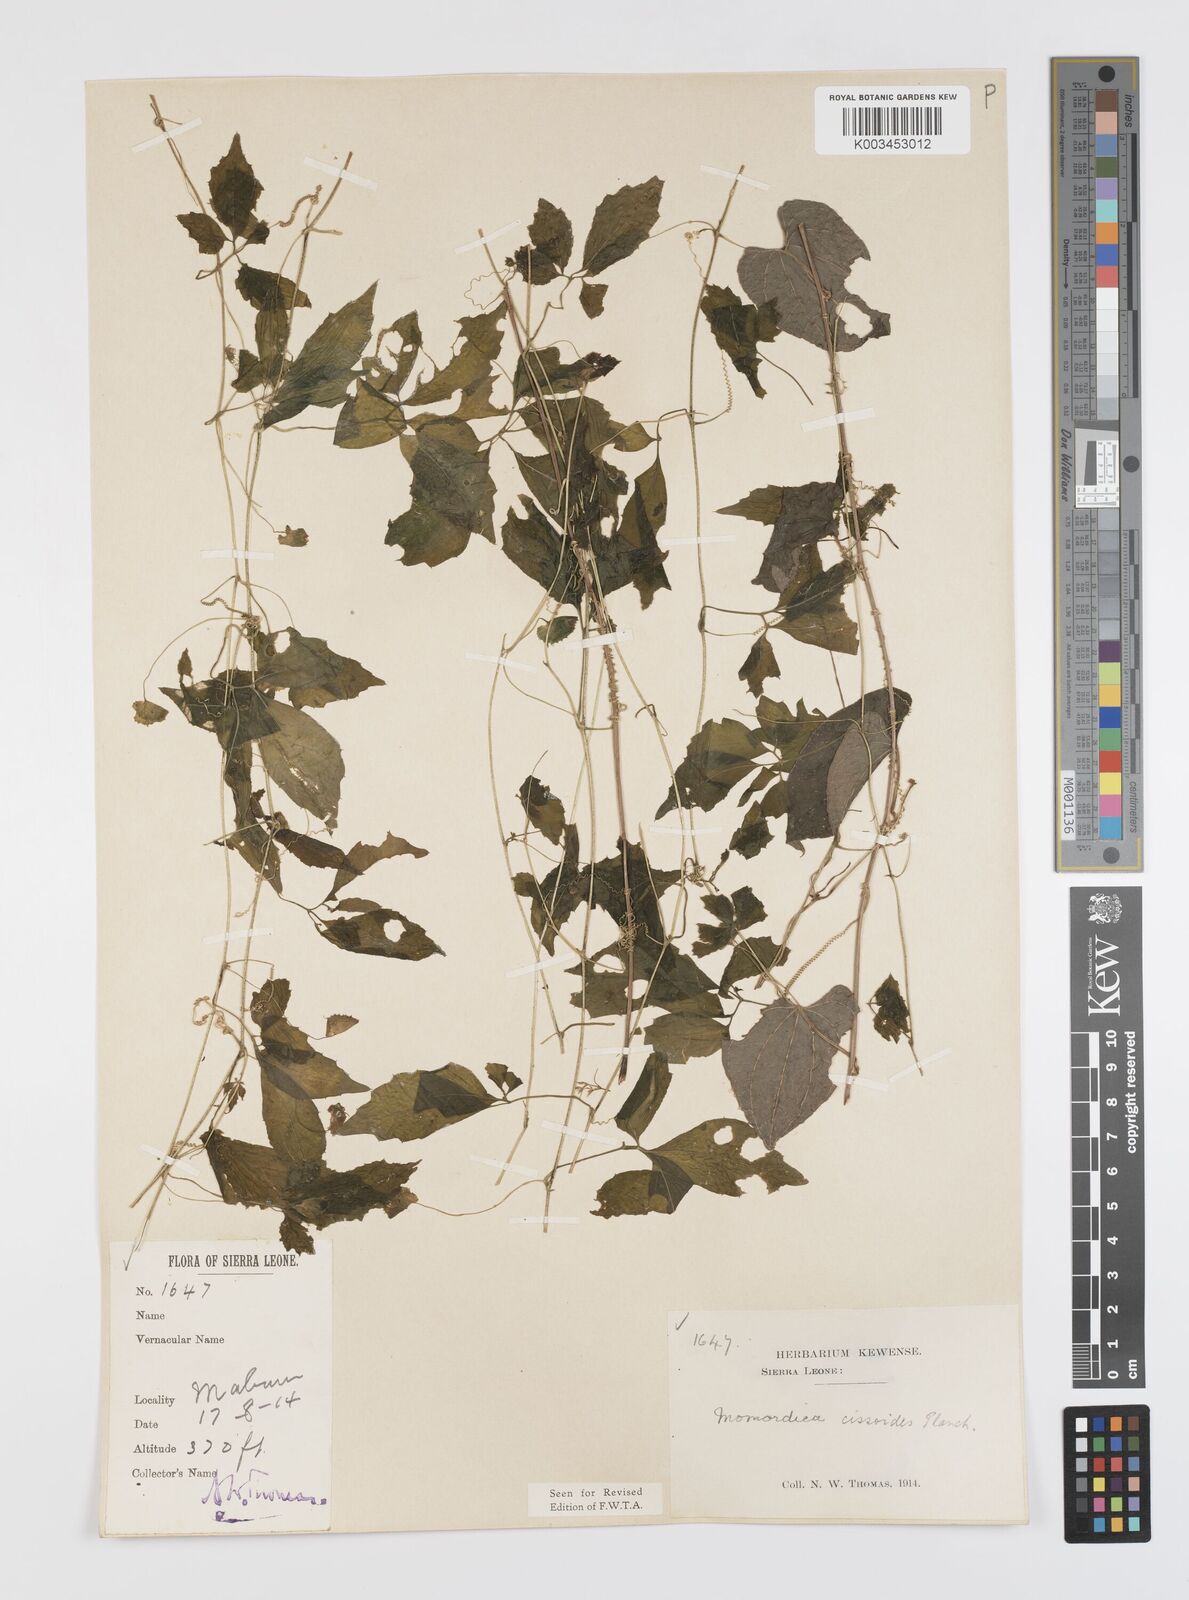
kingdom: Plantae
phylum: Tracheophyta
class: Magnoliopsida
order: Cucurbitales
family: Cucurbitaceae
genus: Momordica
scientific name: Momordica cissoides
